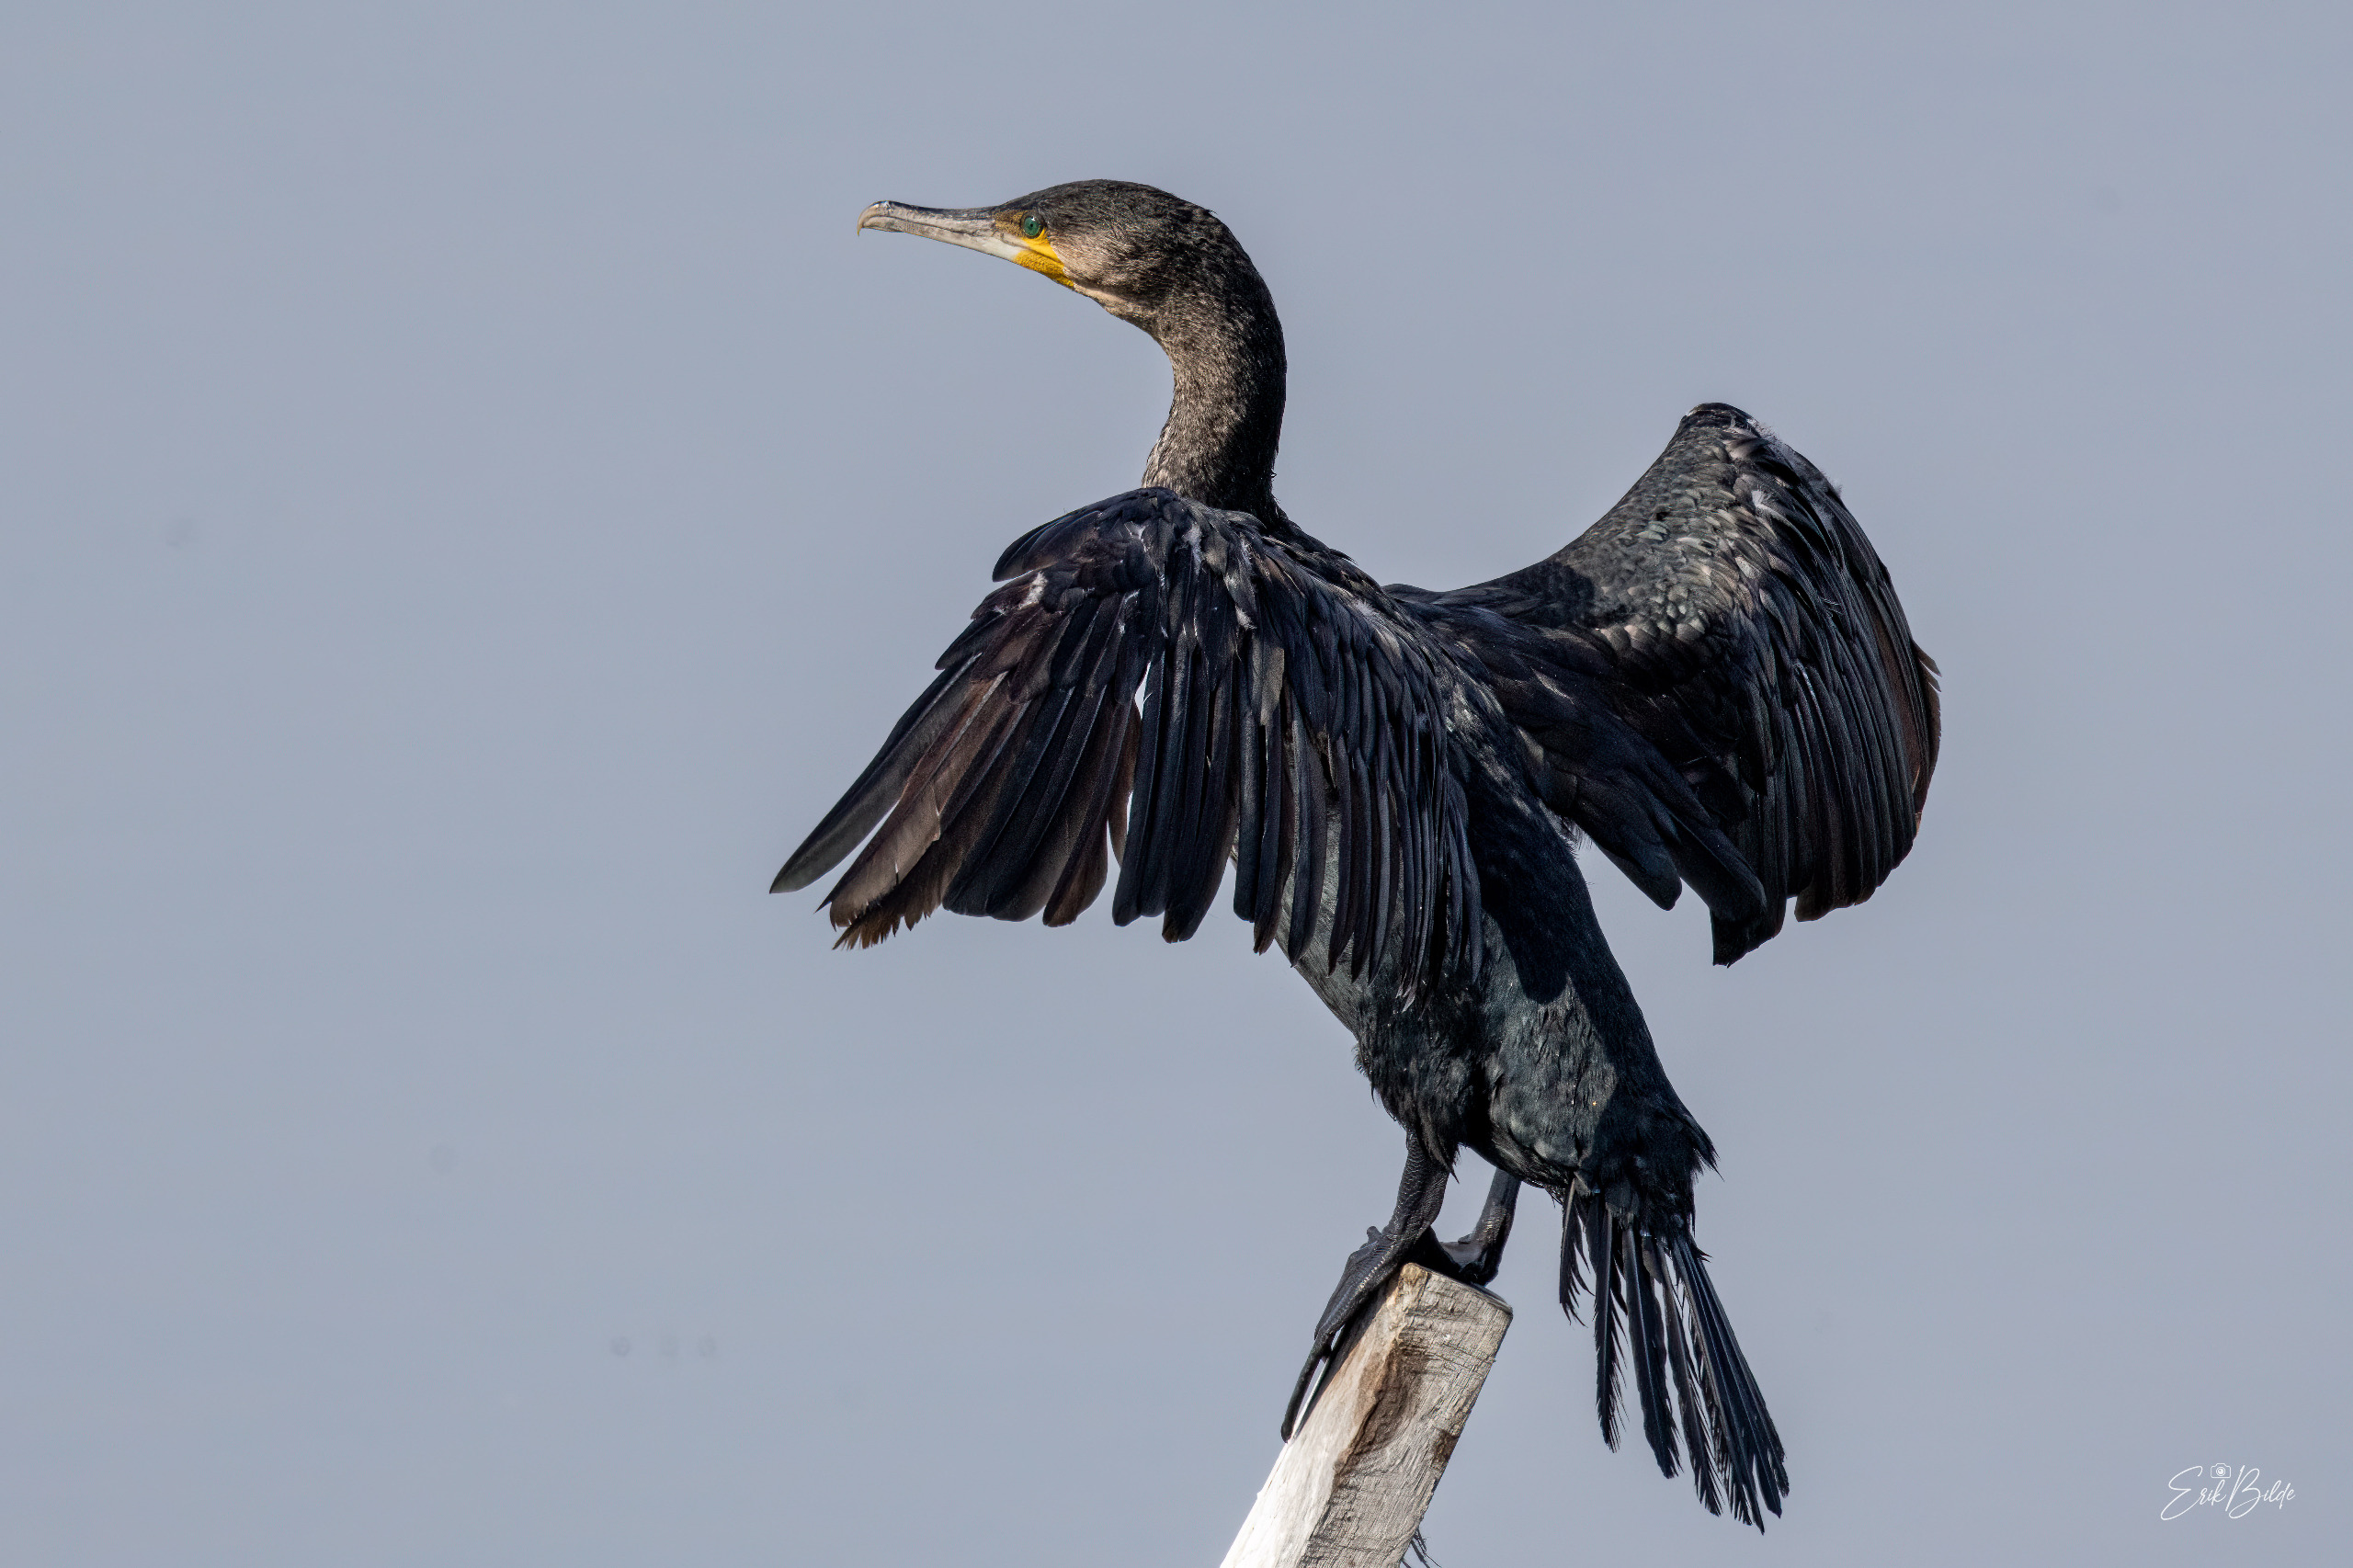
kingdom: Animalia
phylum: Chordata
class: Aves
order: Suliformes
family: Phalacrocoracidae
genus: Phalacrocorax
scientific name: Phalacrocorax carbo
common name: Skarv
